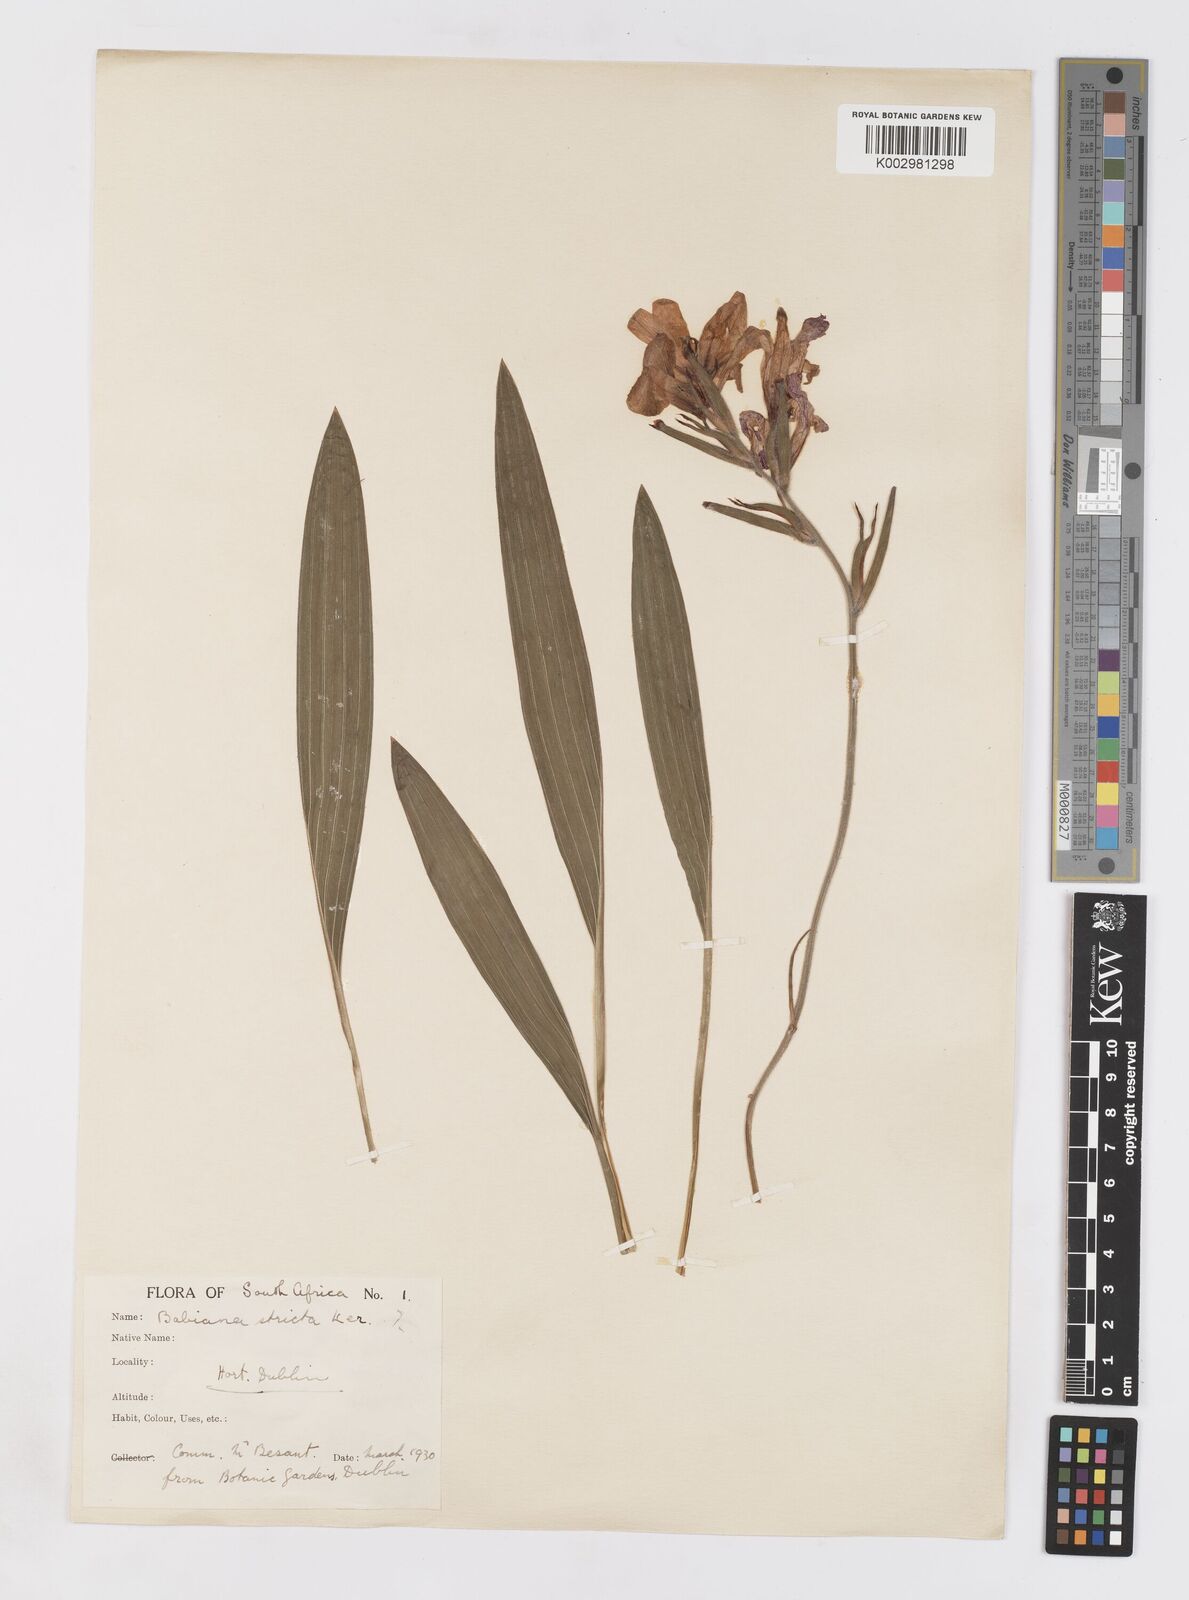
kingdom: Plantae
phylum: Tracheophyta
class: Liliopsida
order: Asparagales
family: Iridaceae
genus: Babiana
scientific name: Babiana nervosa
